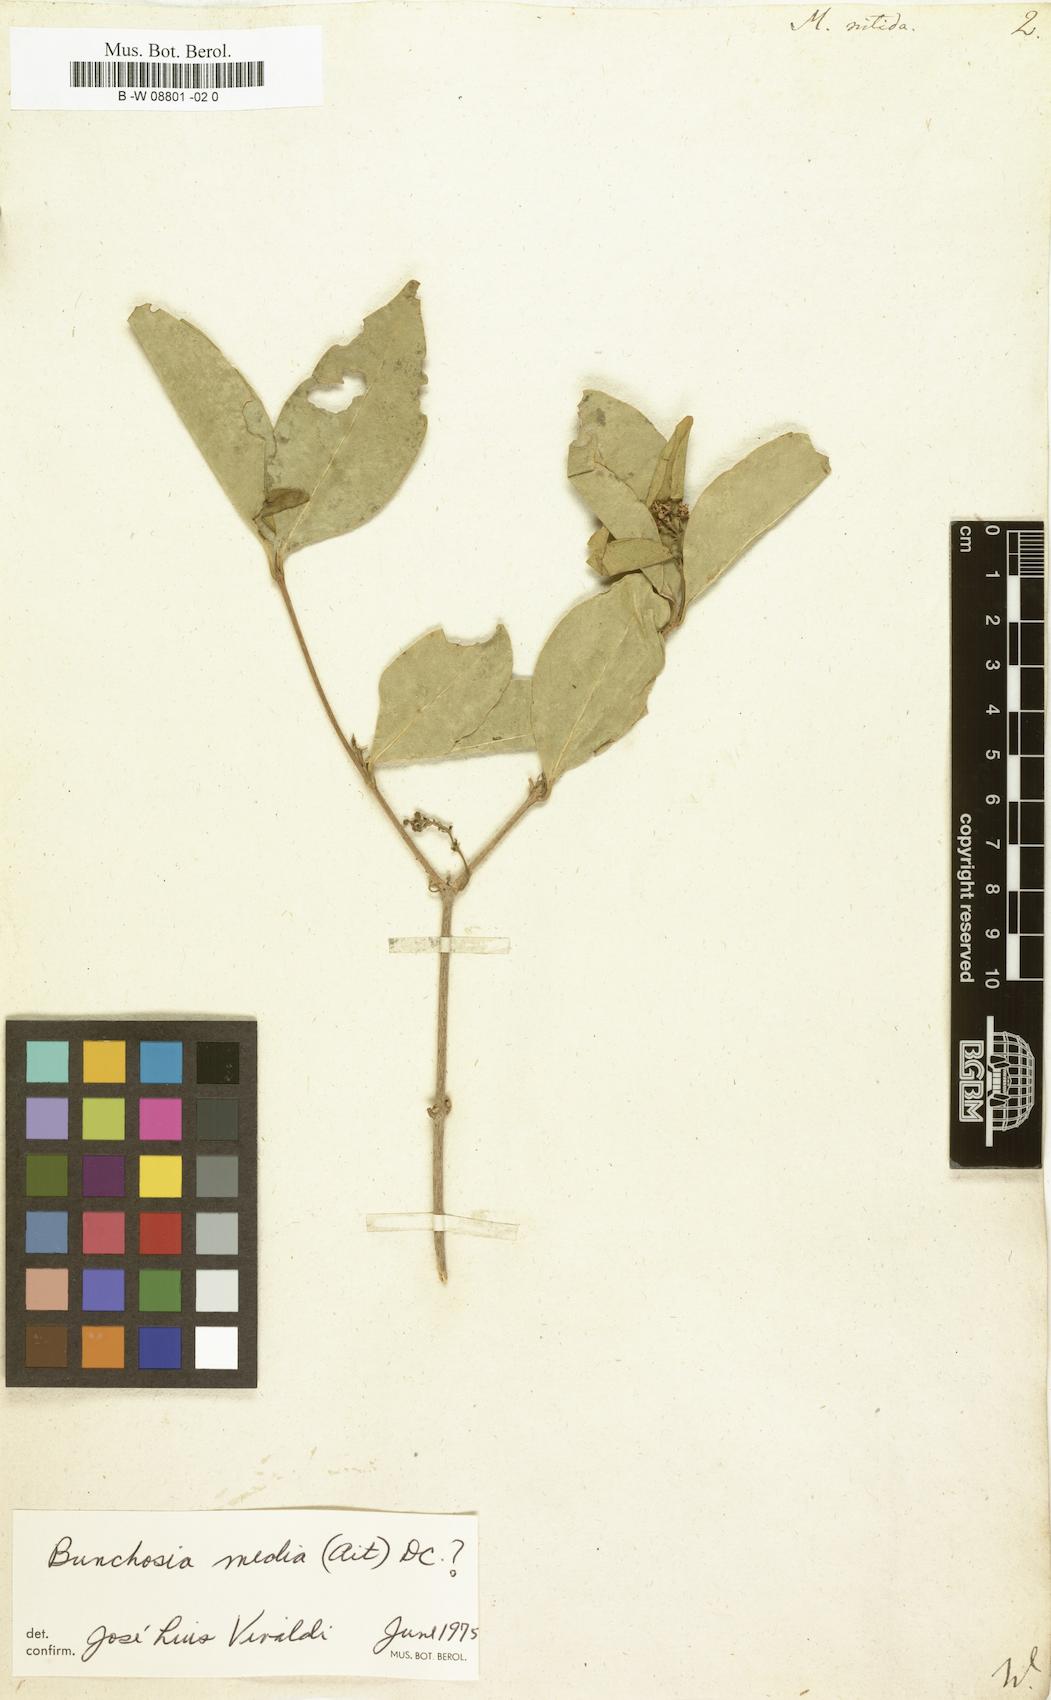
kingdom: Plantae
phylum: Tracheophyta
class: Magnoliopsida
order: Malpighiales
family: Malpighiaceae
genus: Malpighia
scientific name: Malpighia nitida
